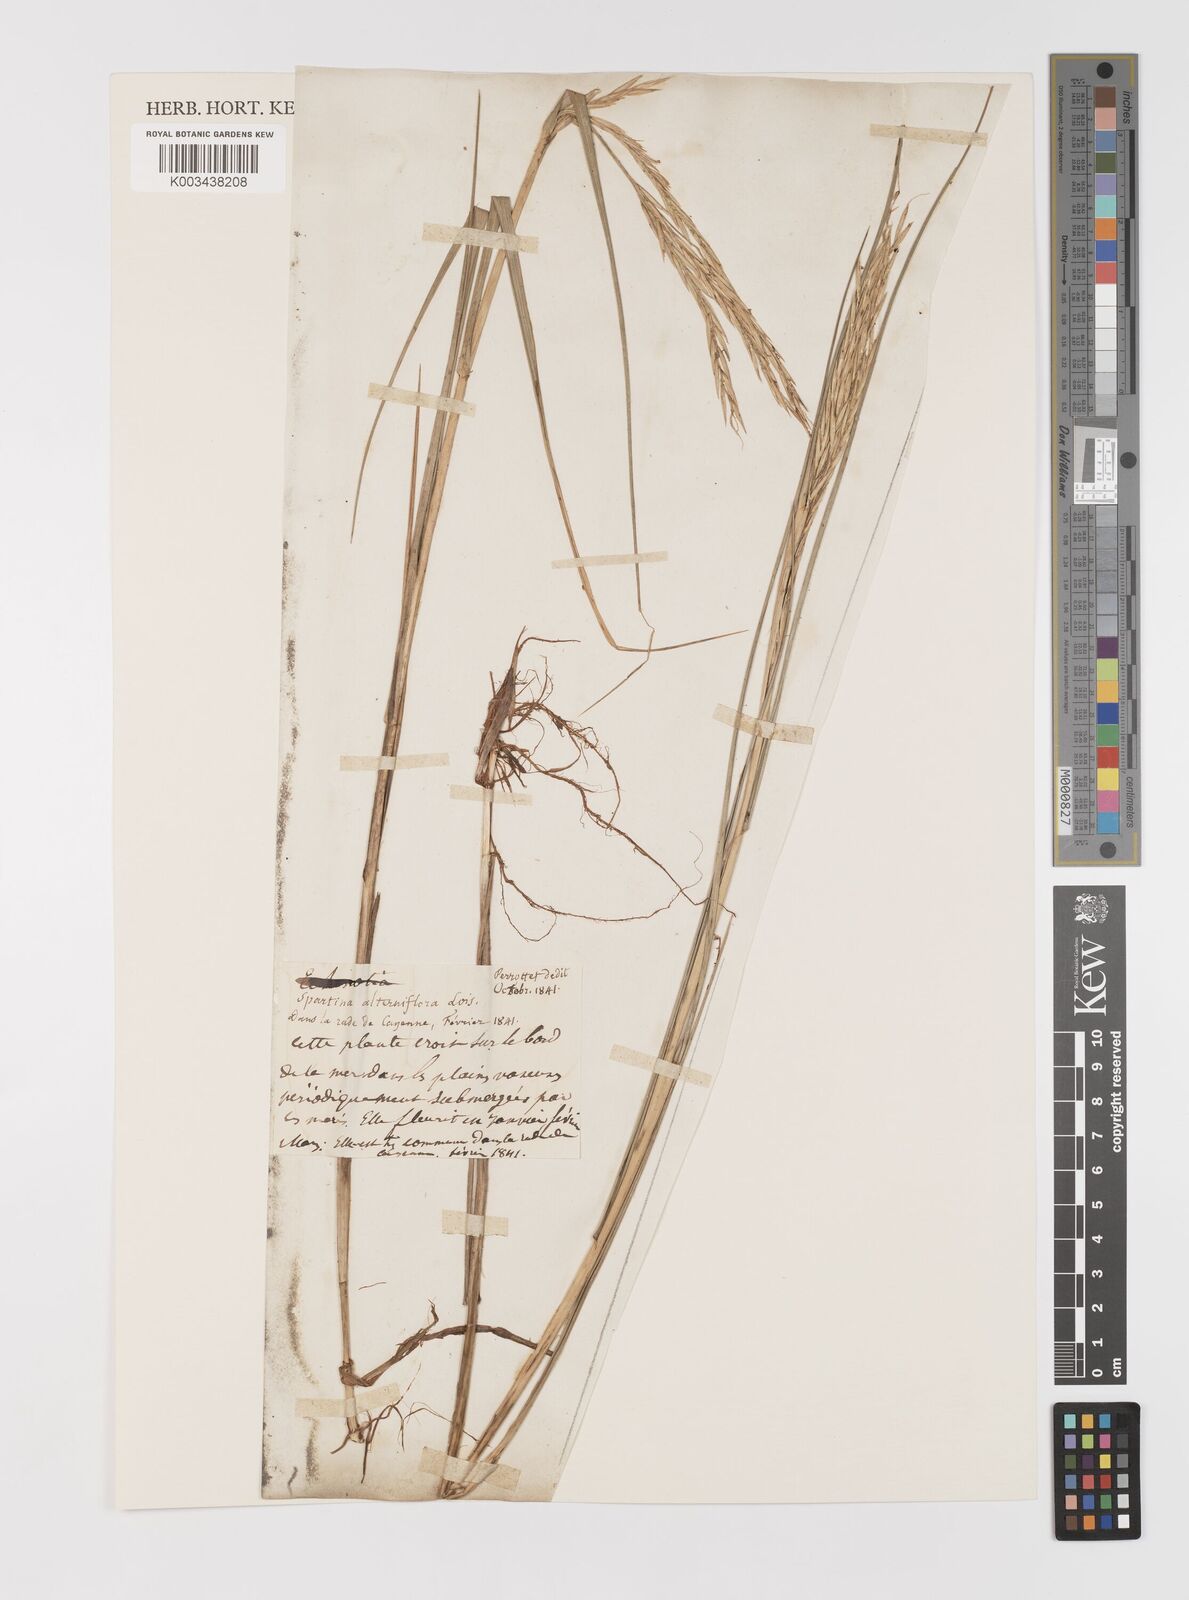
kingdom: Plantae
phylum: Tracheophyta
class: Liliopsida
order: Poales
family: Poaceae
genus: Sporobolus
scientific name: Sporobolus alterniflorus
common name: Atlantic cordgrass
